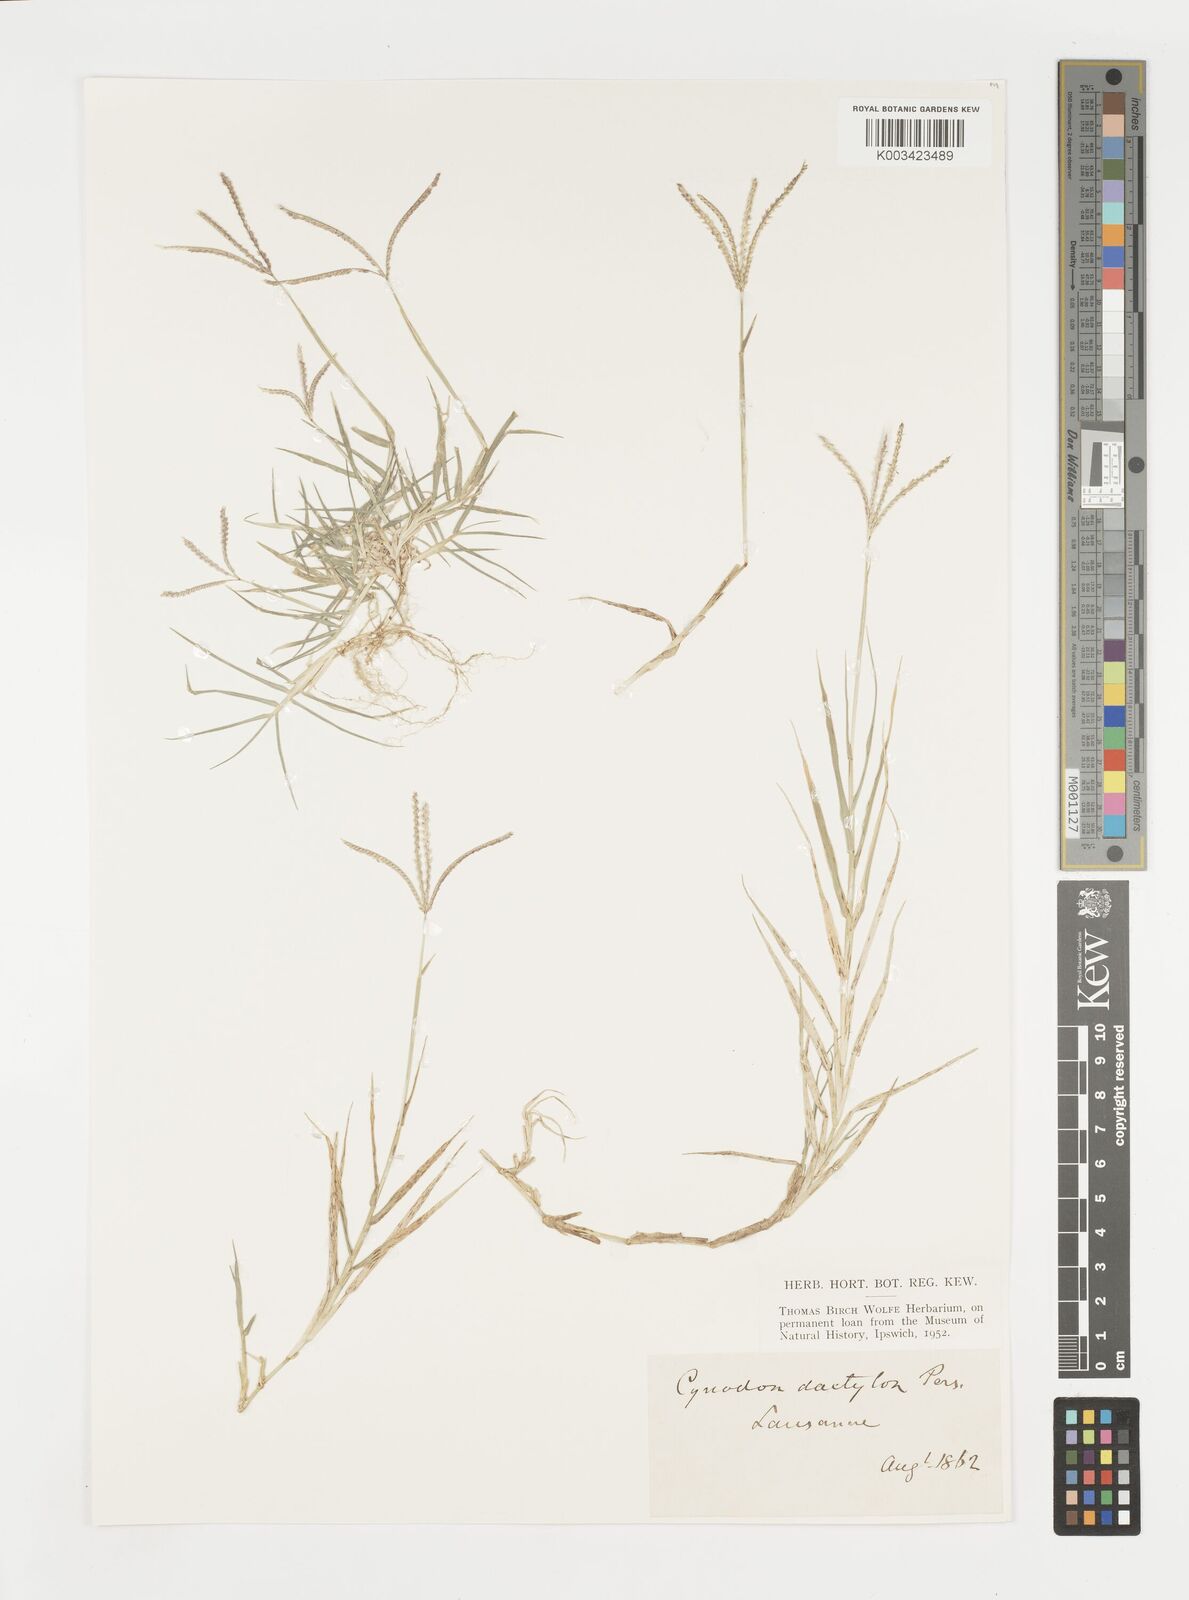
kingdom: Plantae
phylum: Tracheophyta
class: Liliopsida
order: Poales
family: Poaceae
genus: Cynodon
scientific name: Cynodon dactylon
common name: Bermuda grass
